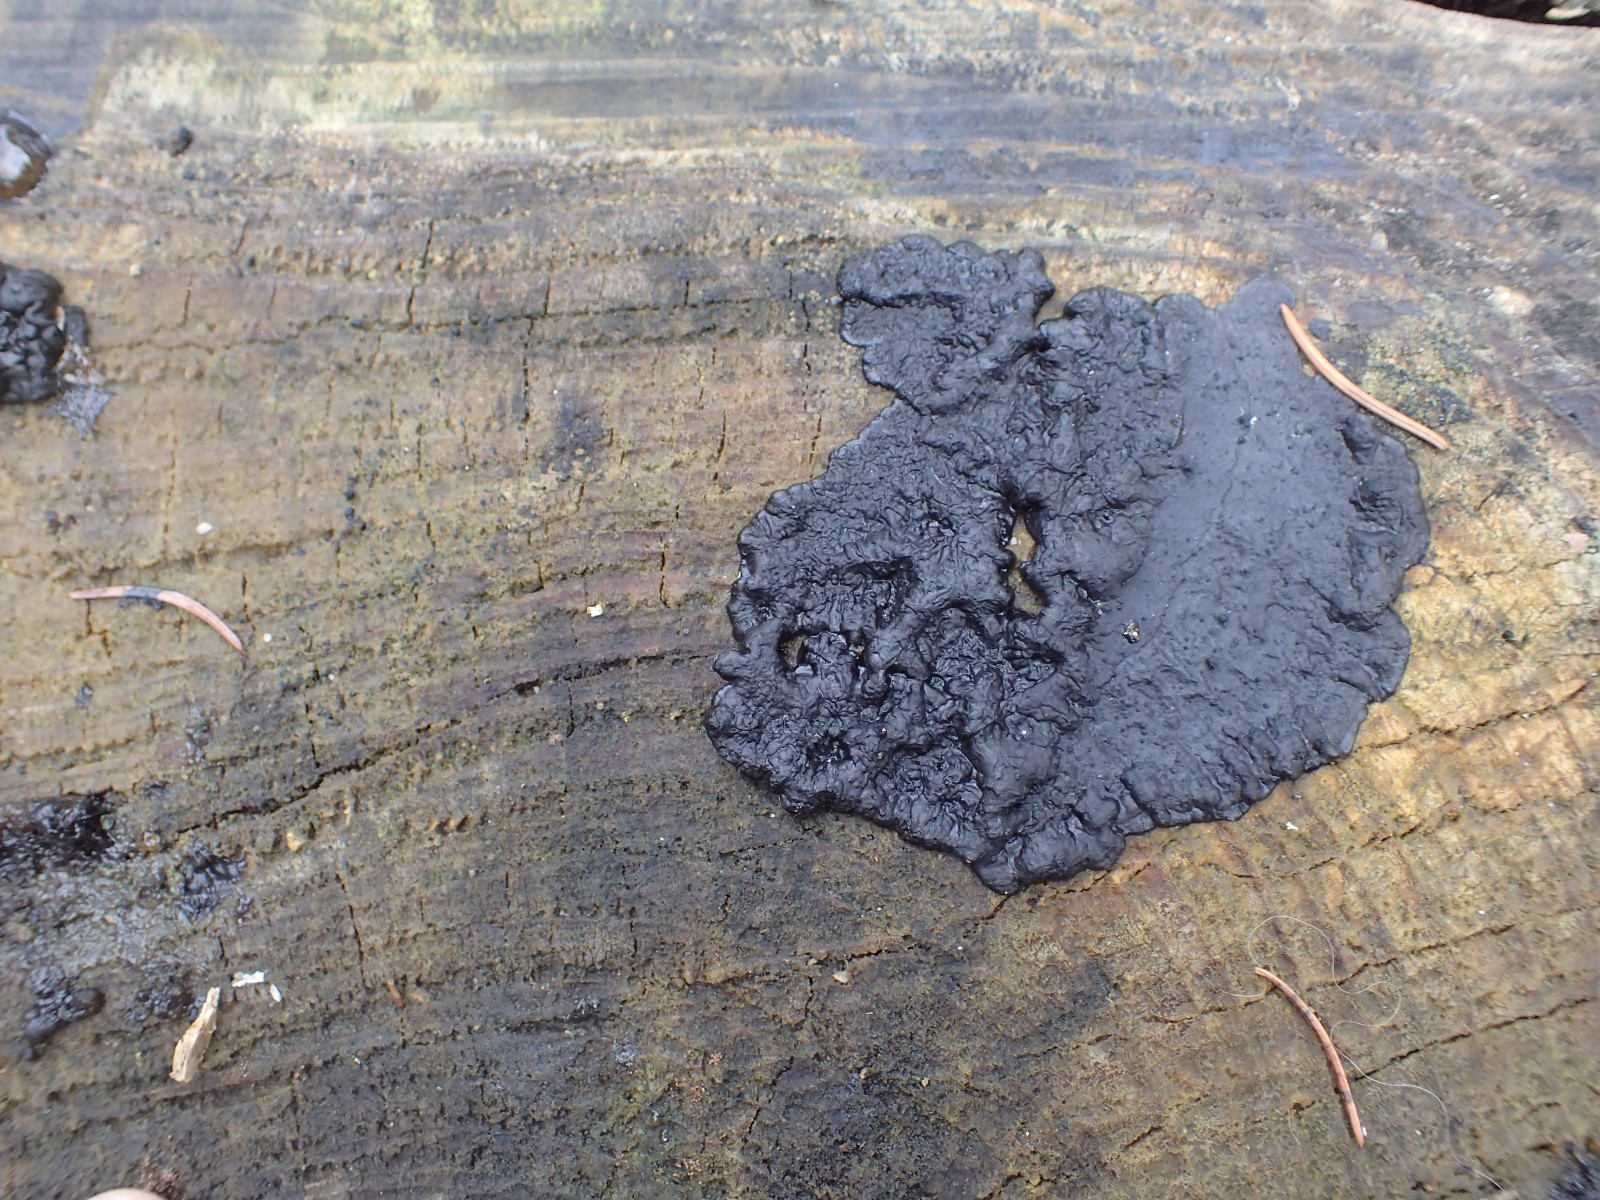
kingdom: Fungi
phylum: Basidiomycota
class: Agaricomycetes
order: Auriculariales
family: Auriculariaceae
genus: Exidia
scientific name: Exidia pithya
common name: gran-bævretop
